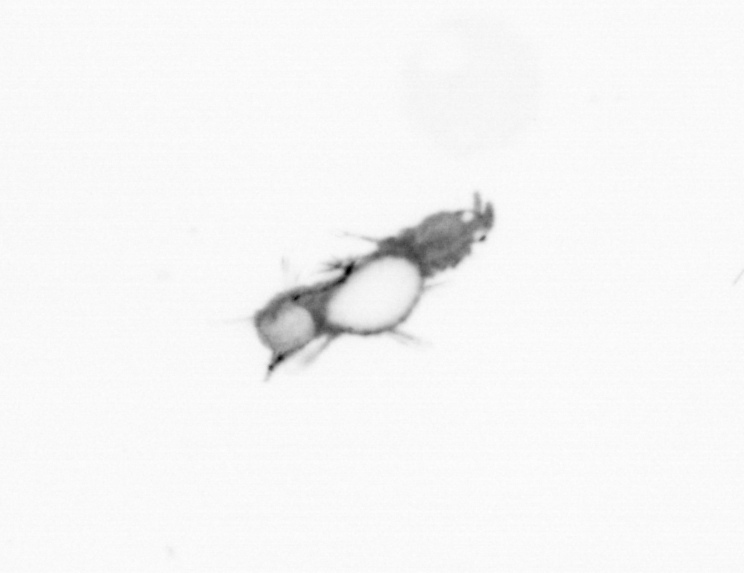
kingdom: Animalia
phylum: Annelida
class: Polychaeta
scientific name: Polychaeta
